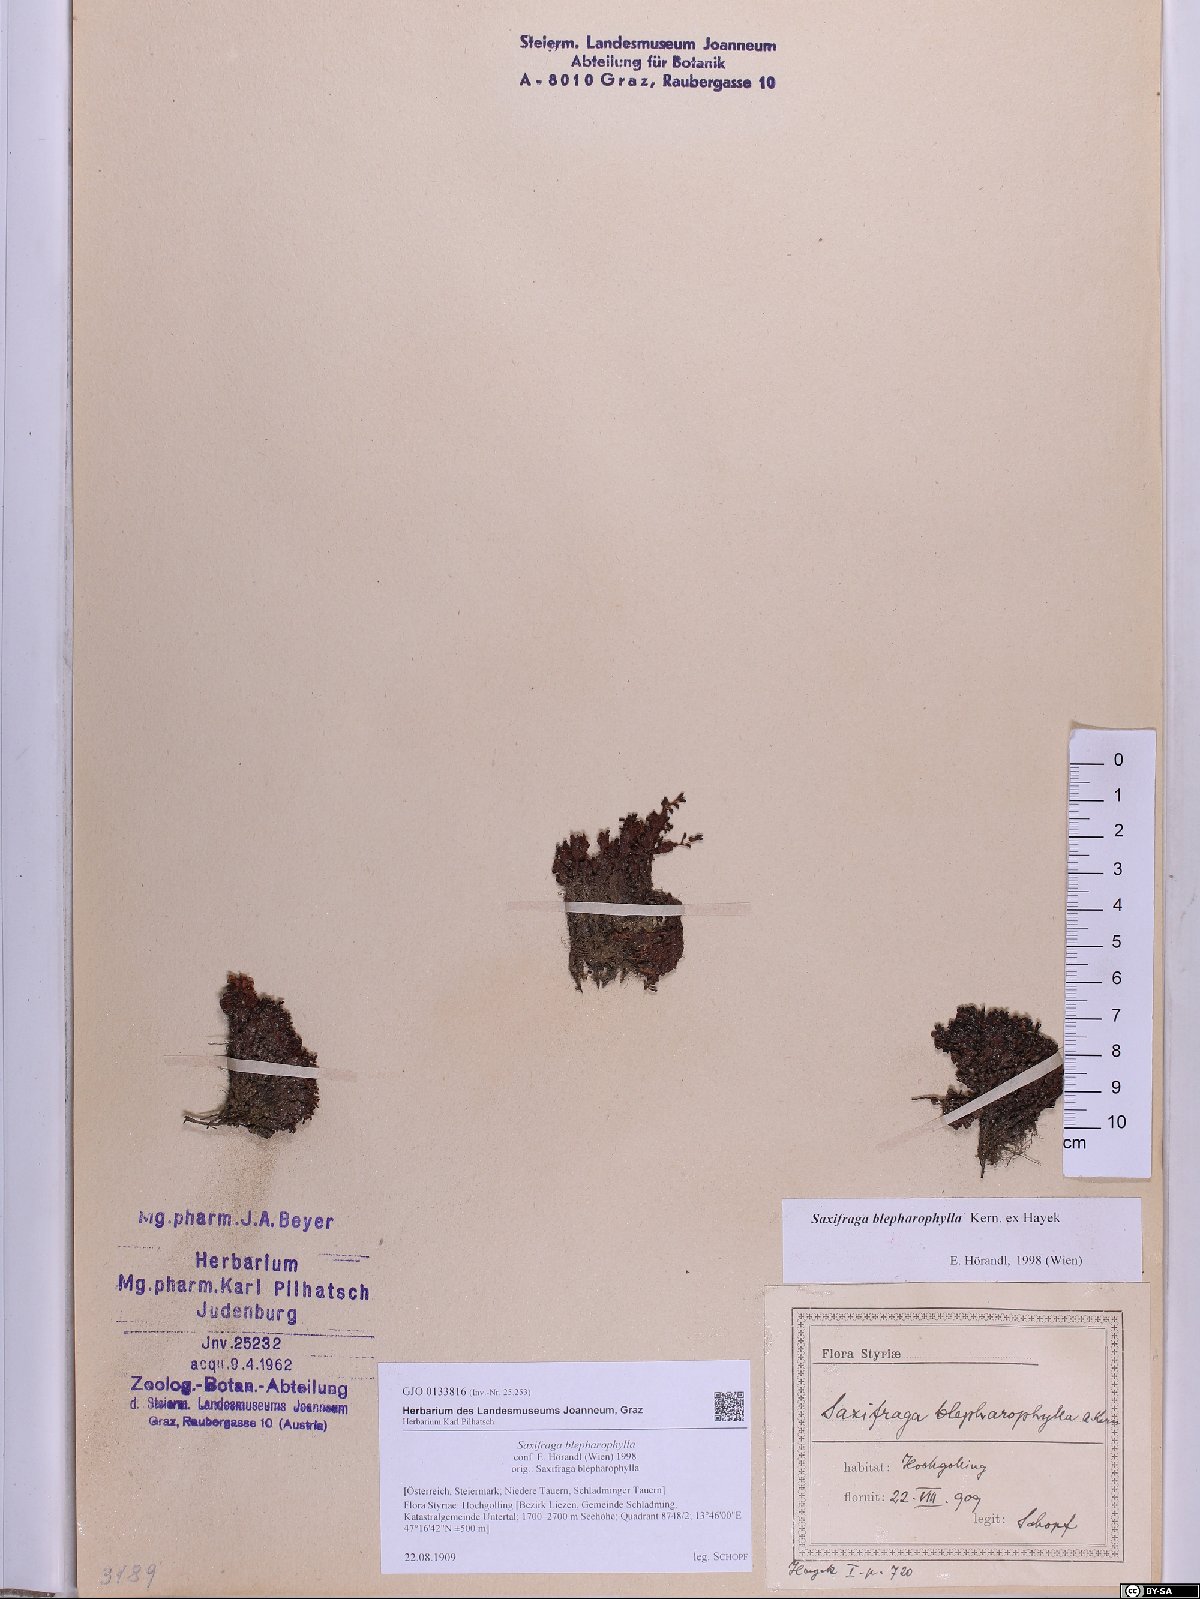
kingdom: Plantae
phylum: Tracheophyta
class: Magnoliopsida
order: Saxifragales
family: Saxifragaceae
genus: Saxifraga
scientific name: Saxifraga oppositifolia
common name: Purple saxifrage
